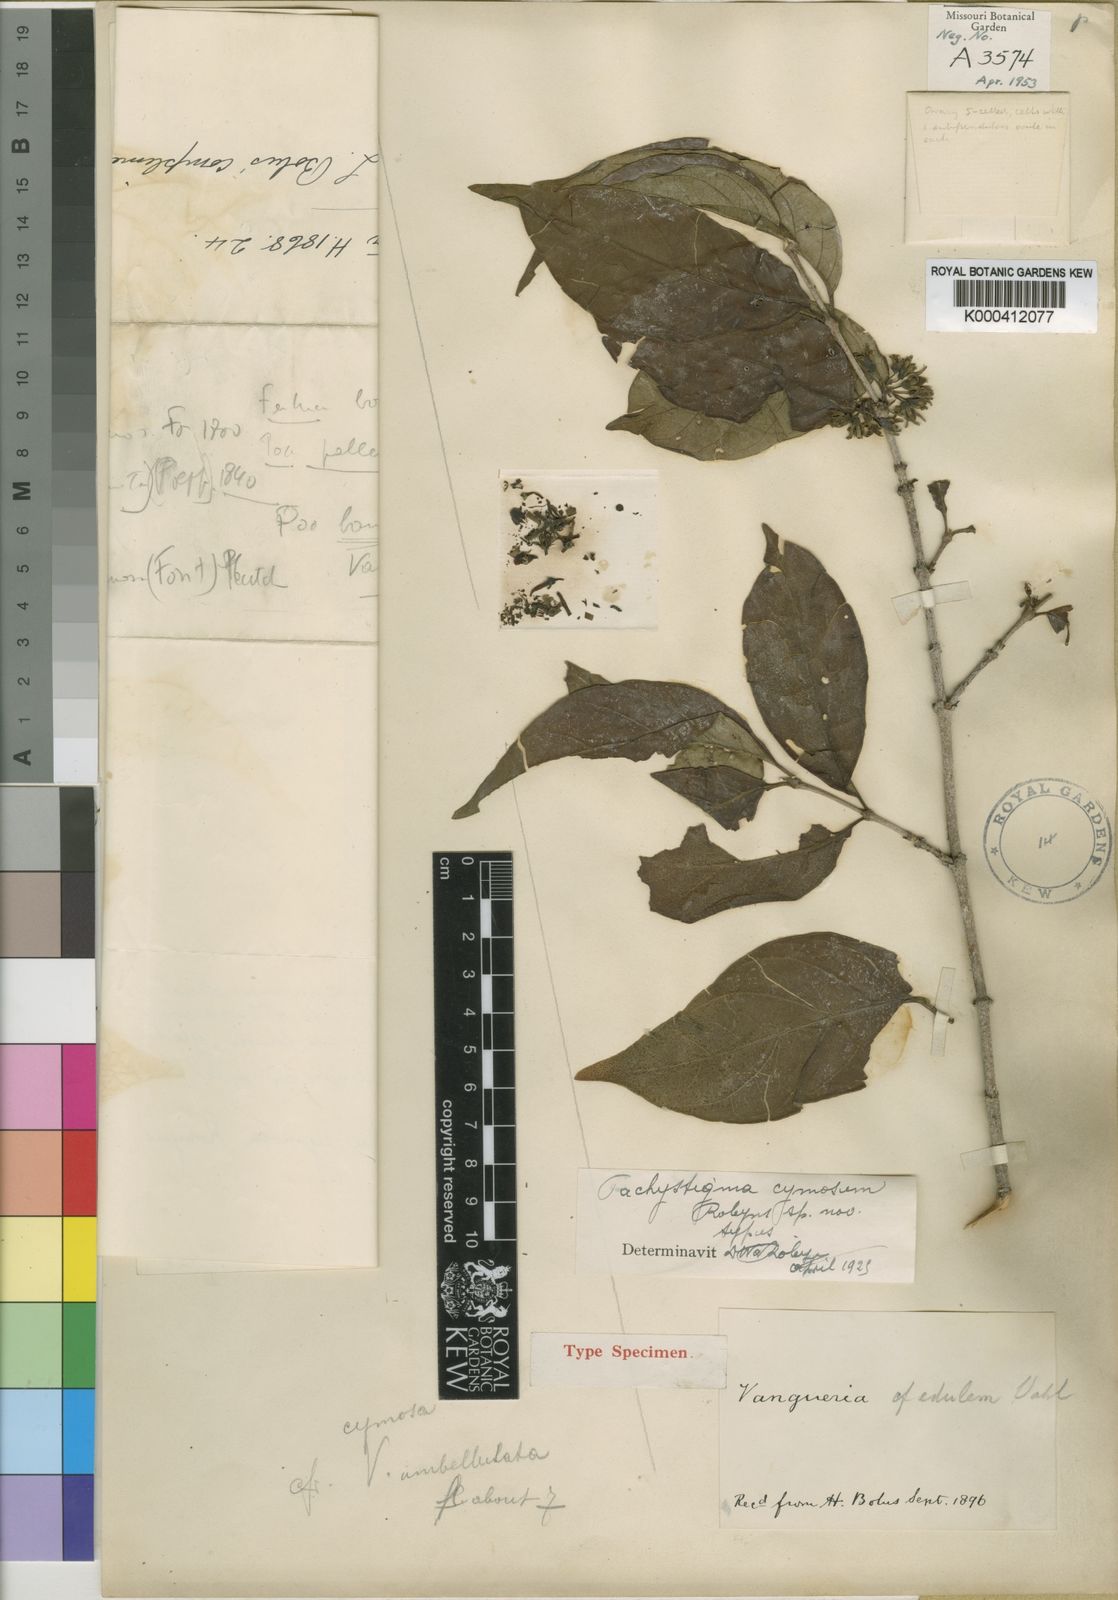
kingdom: Plantae
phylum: Tracheophyta
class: Magnoliopsida
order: Gentianales
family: Rubiaceae
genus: Vangueria
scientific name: Vangueria madagascariensis
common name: Smooth wild-medlar
